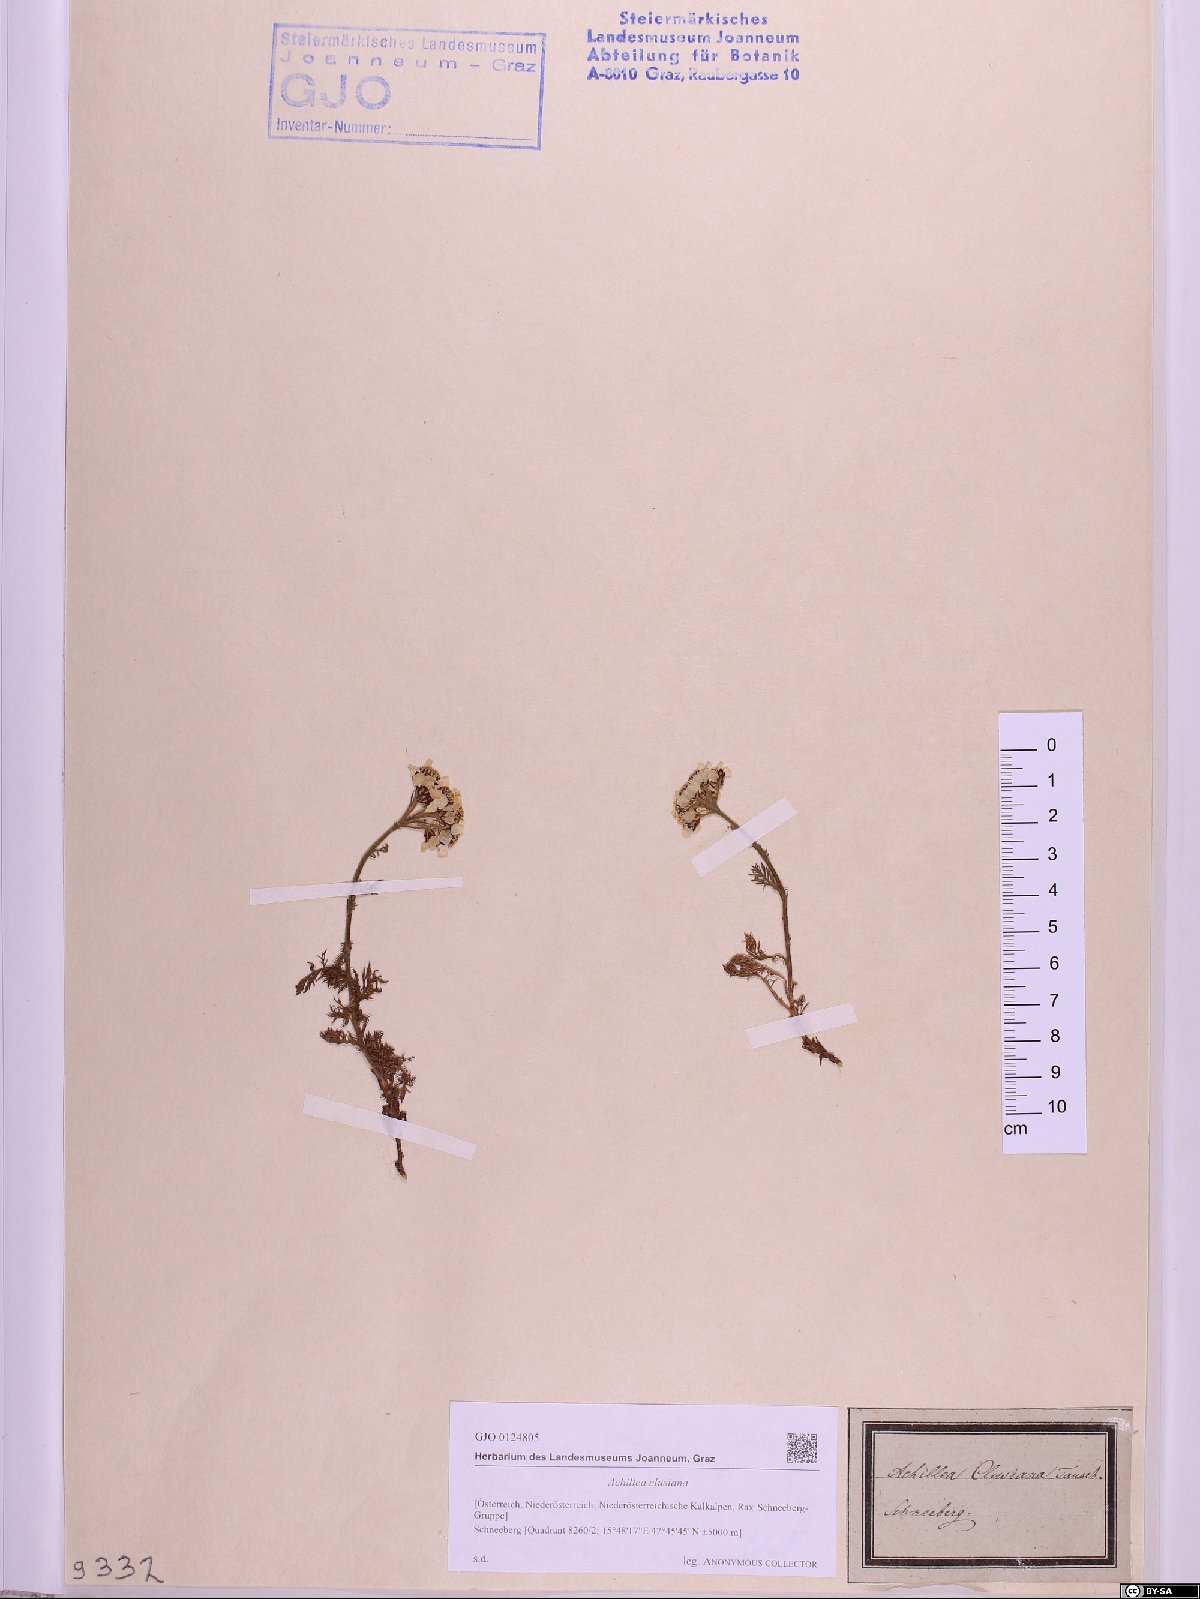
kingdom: Plantae
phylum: Tracheophyta
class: Magnoliopsida
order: Asterales
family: Asteraceae
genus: Achillea
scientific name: Achillea clusiana
